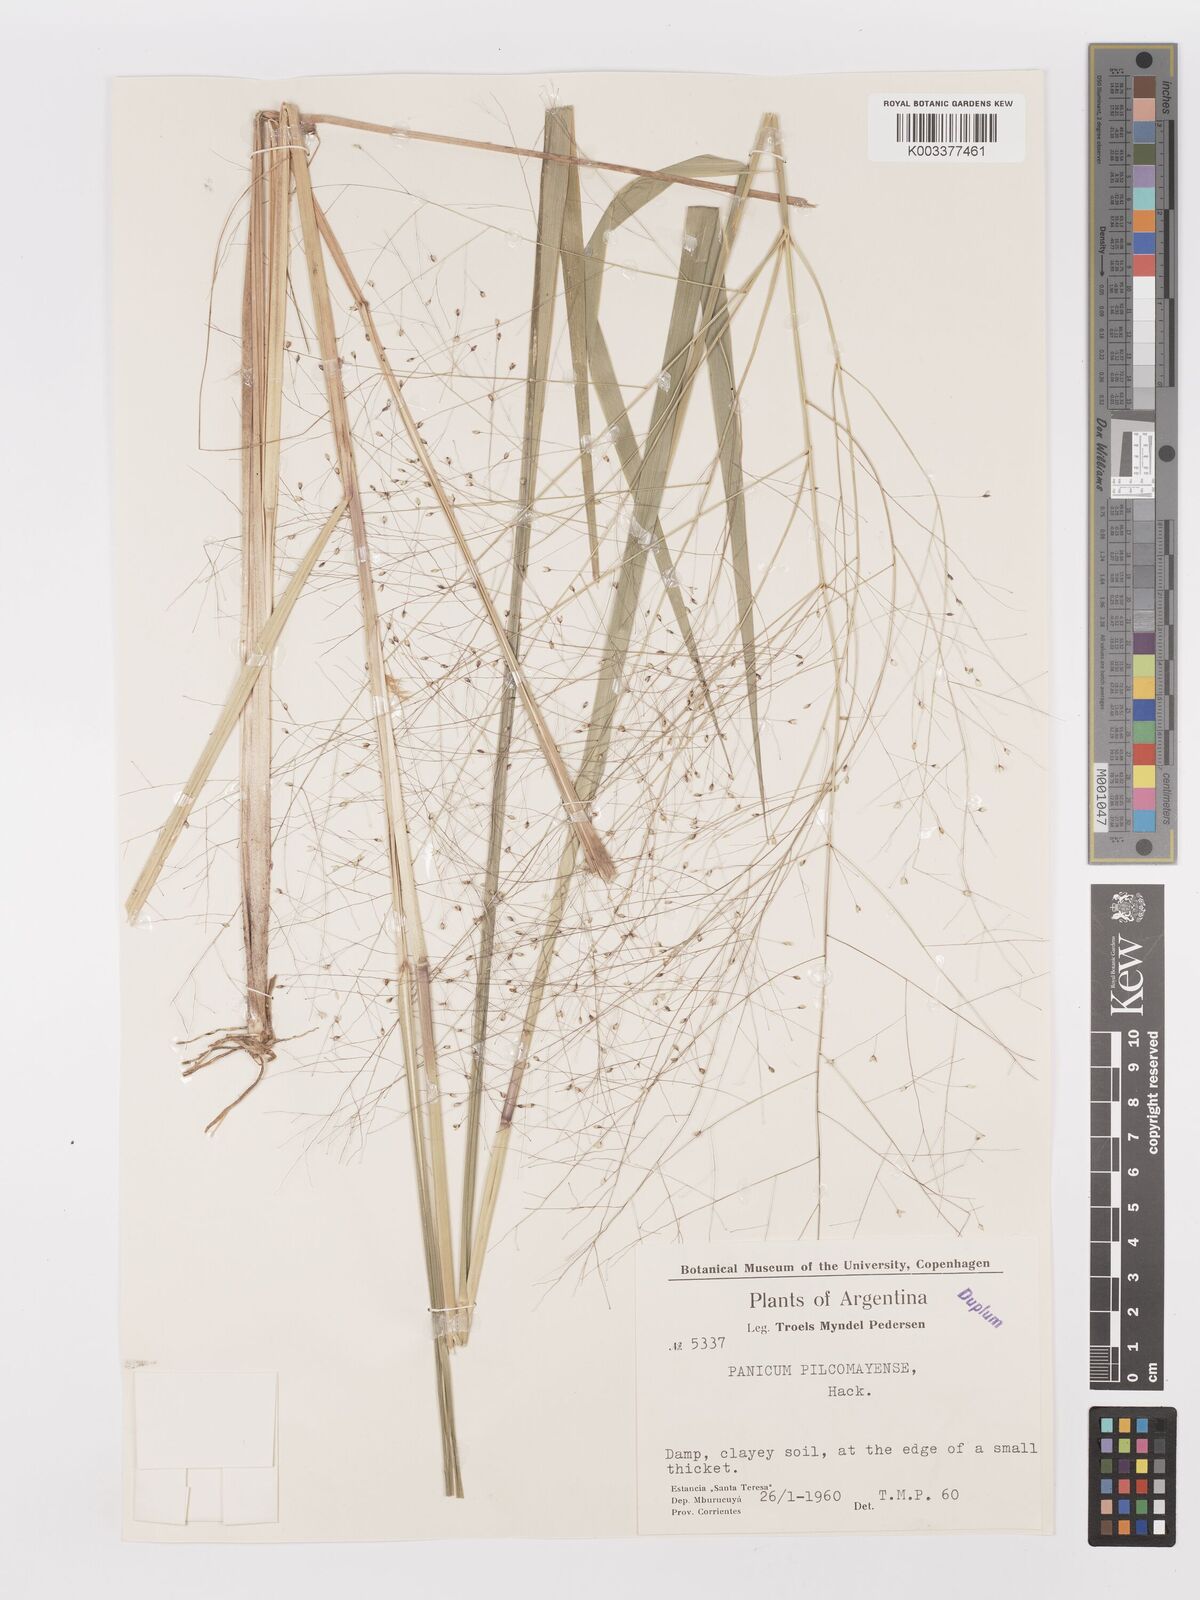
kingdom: Plantae
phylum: Tracheophyta
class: Liliopsida
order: Poales
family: Poaceae
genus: Panicum
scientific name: Panicum bergii
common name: Berg's panicgrass
